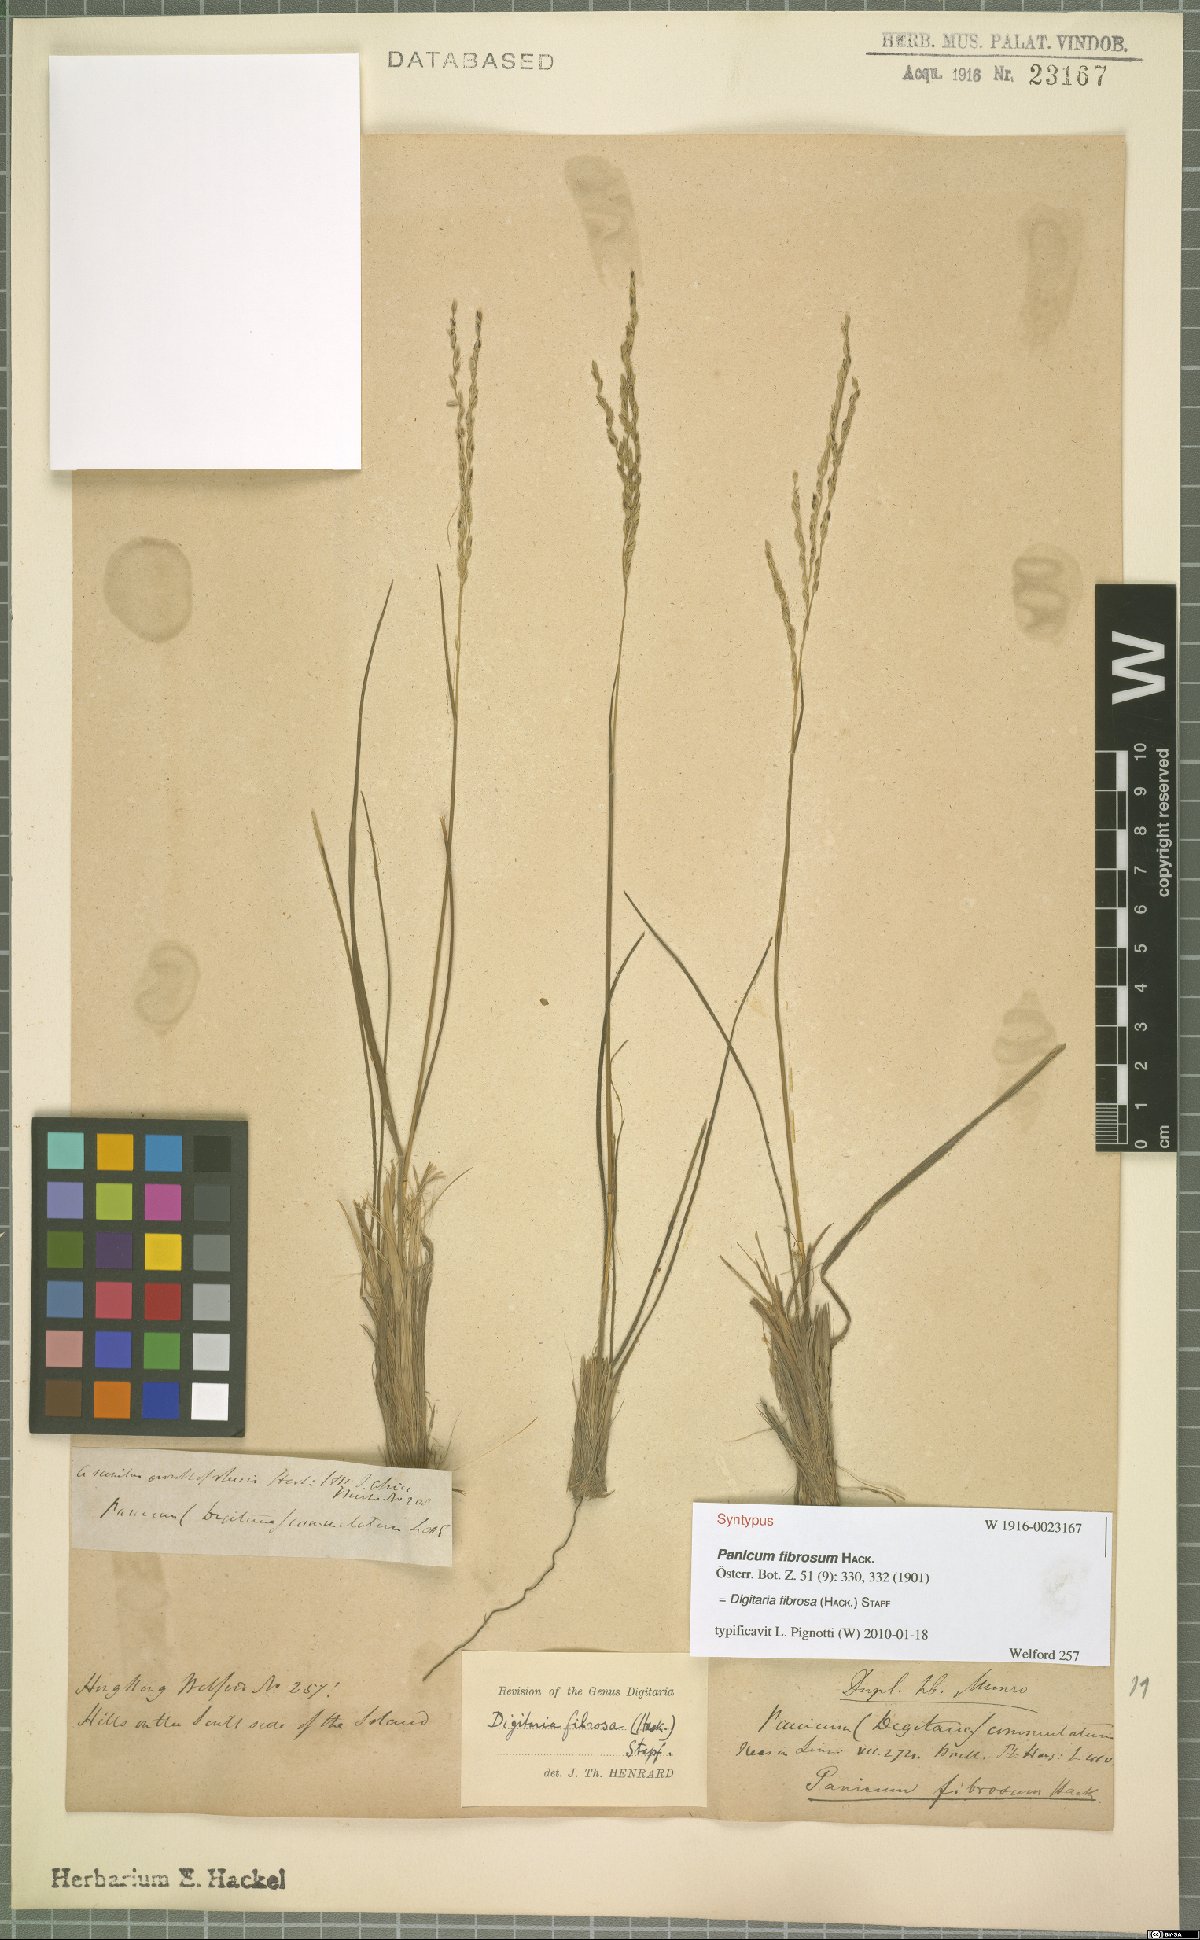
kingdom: Plantae
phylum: Tracheophyta
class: Liliopsida
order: Poales
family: Poaceae
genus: Digitaria
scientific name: Digitaria setifolia
